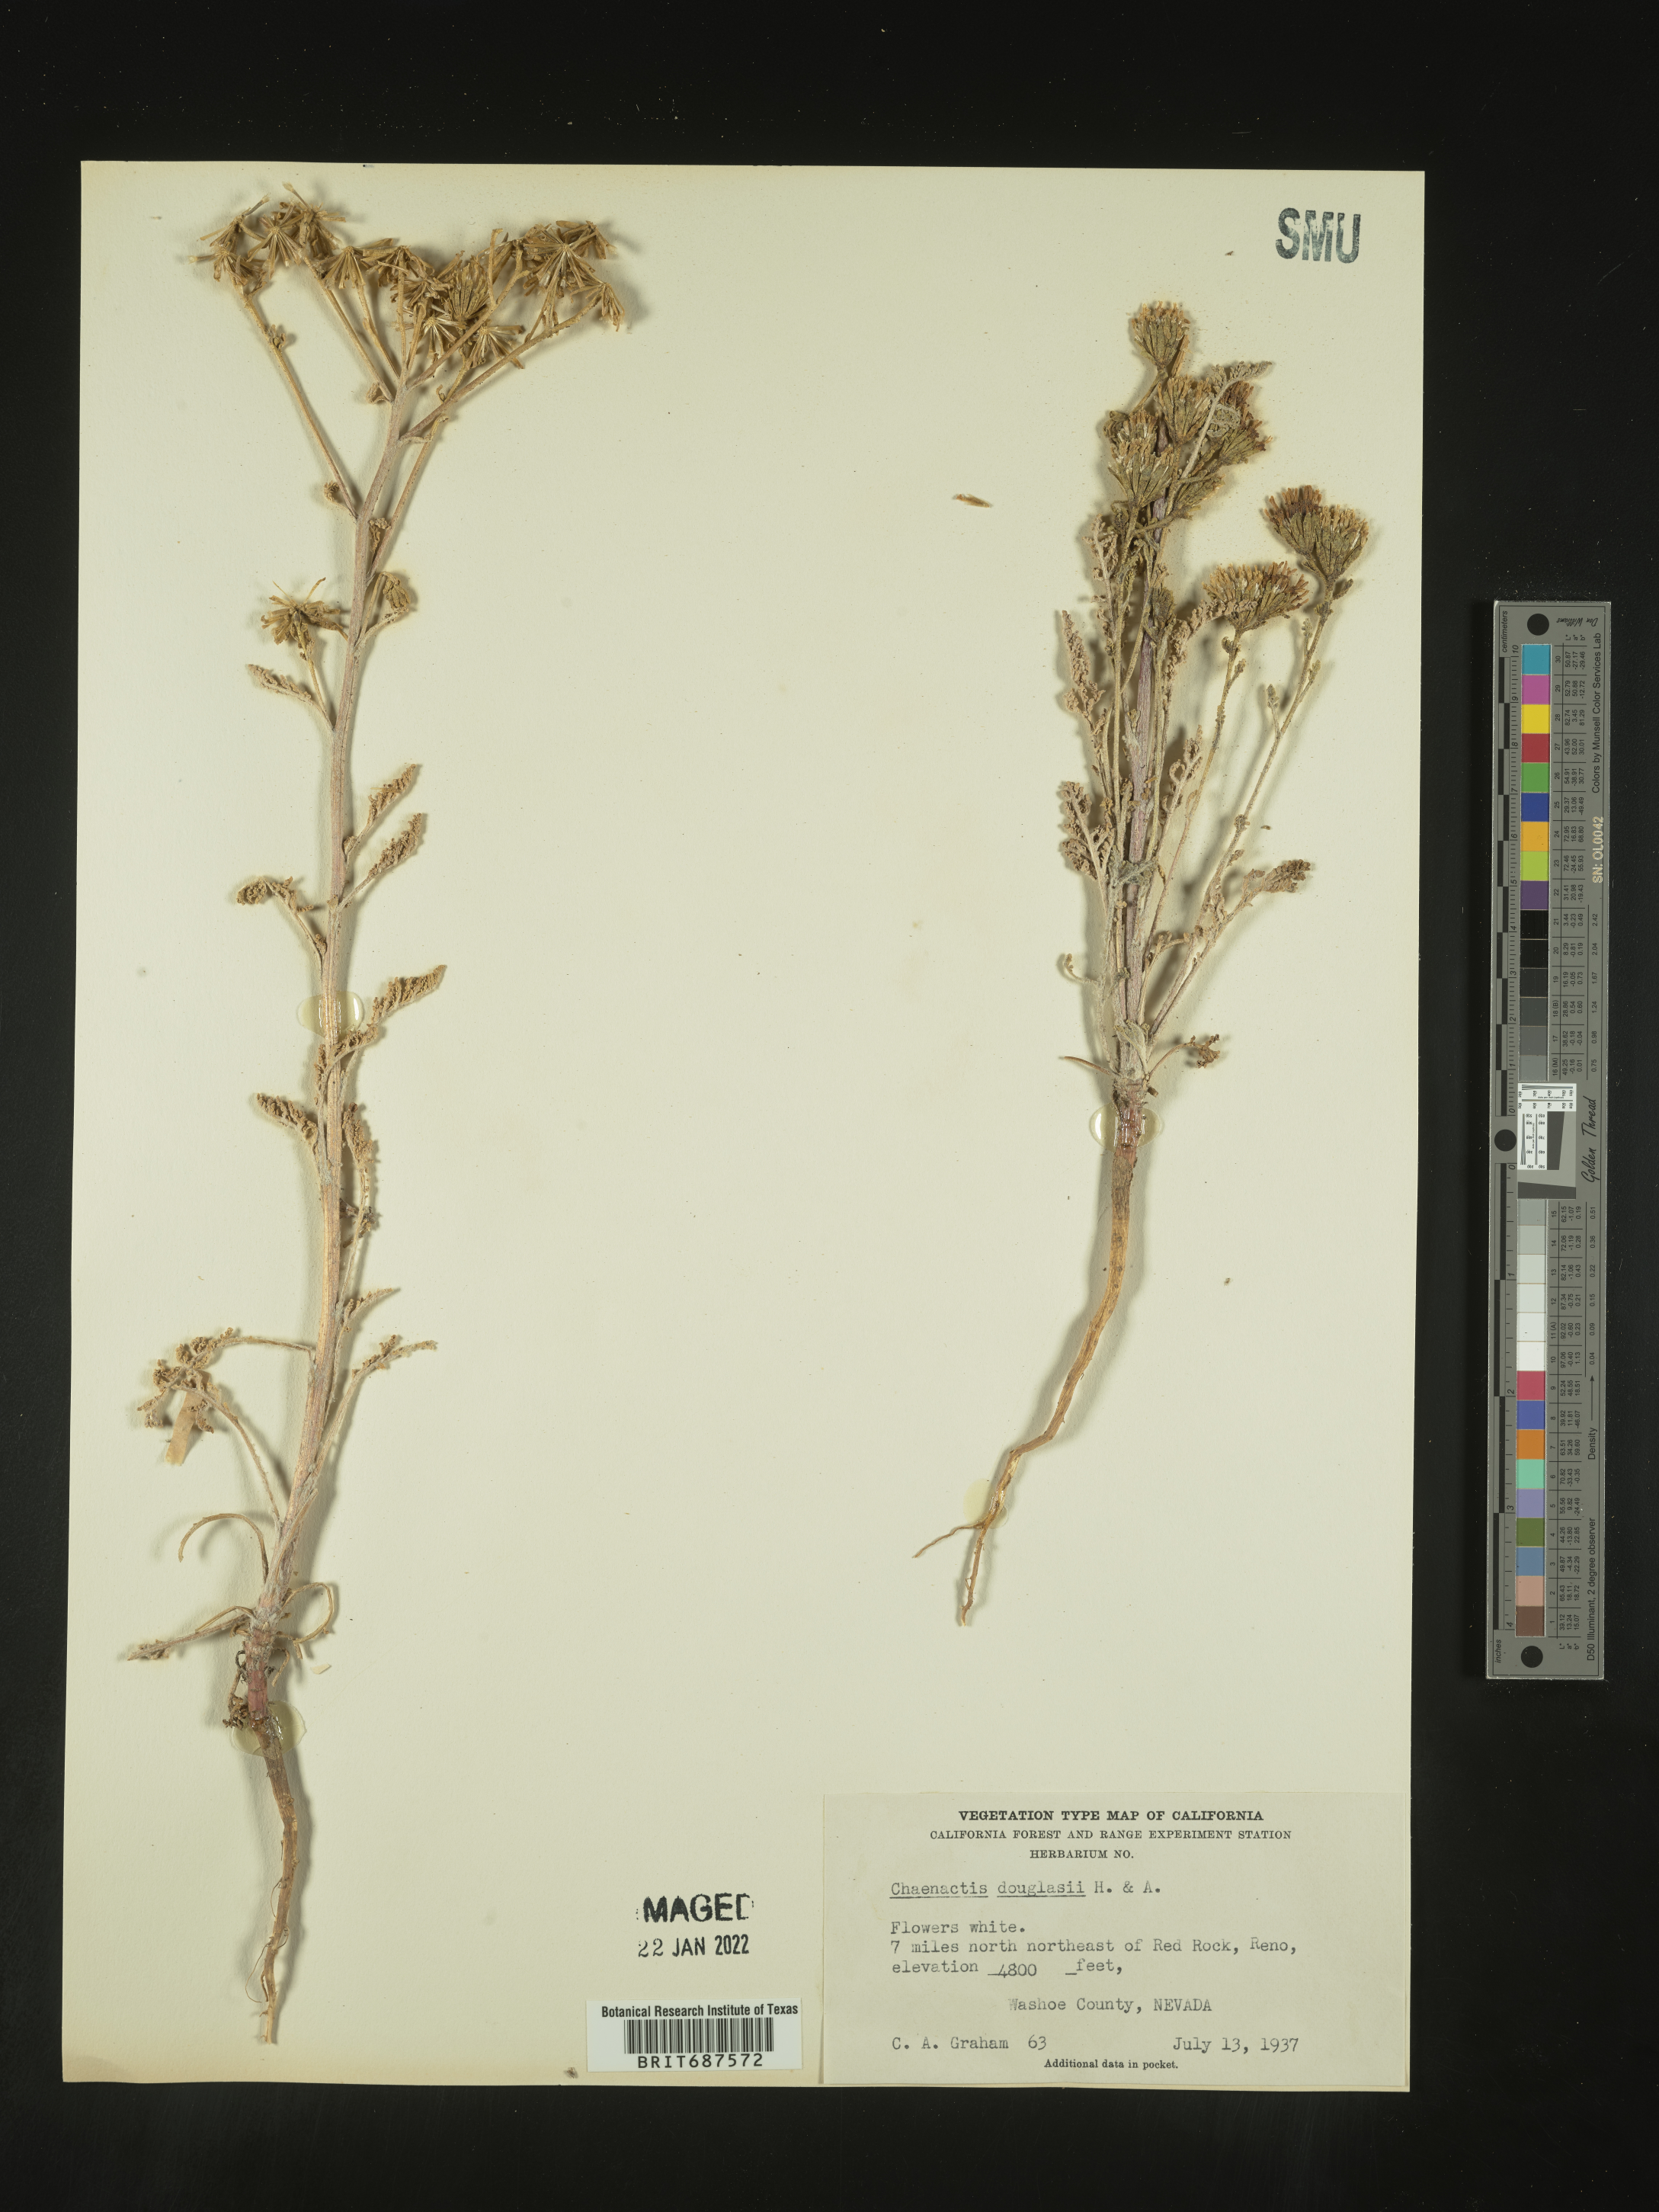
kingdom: Plantae
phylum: Tracheophyta
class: Magnoliopsida
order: Asterales
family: Asteraceae
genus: Chaenactis
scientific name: Chaenactis douglasii
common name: Hoary pincushion
